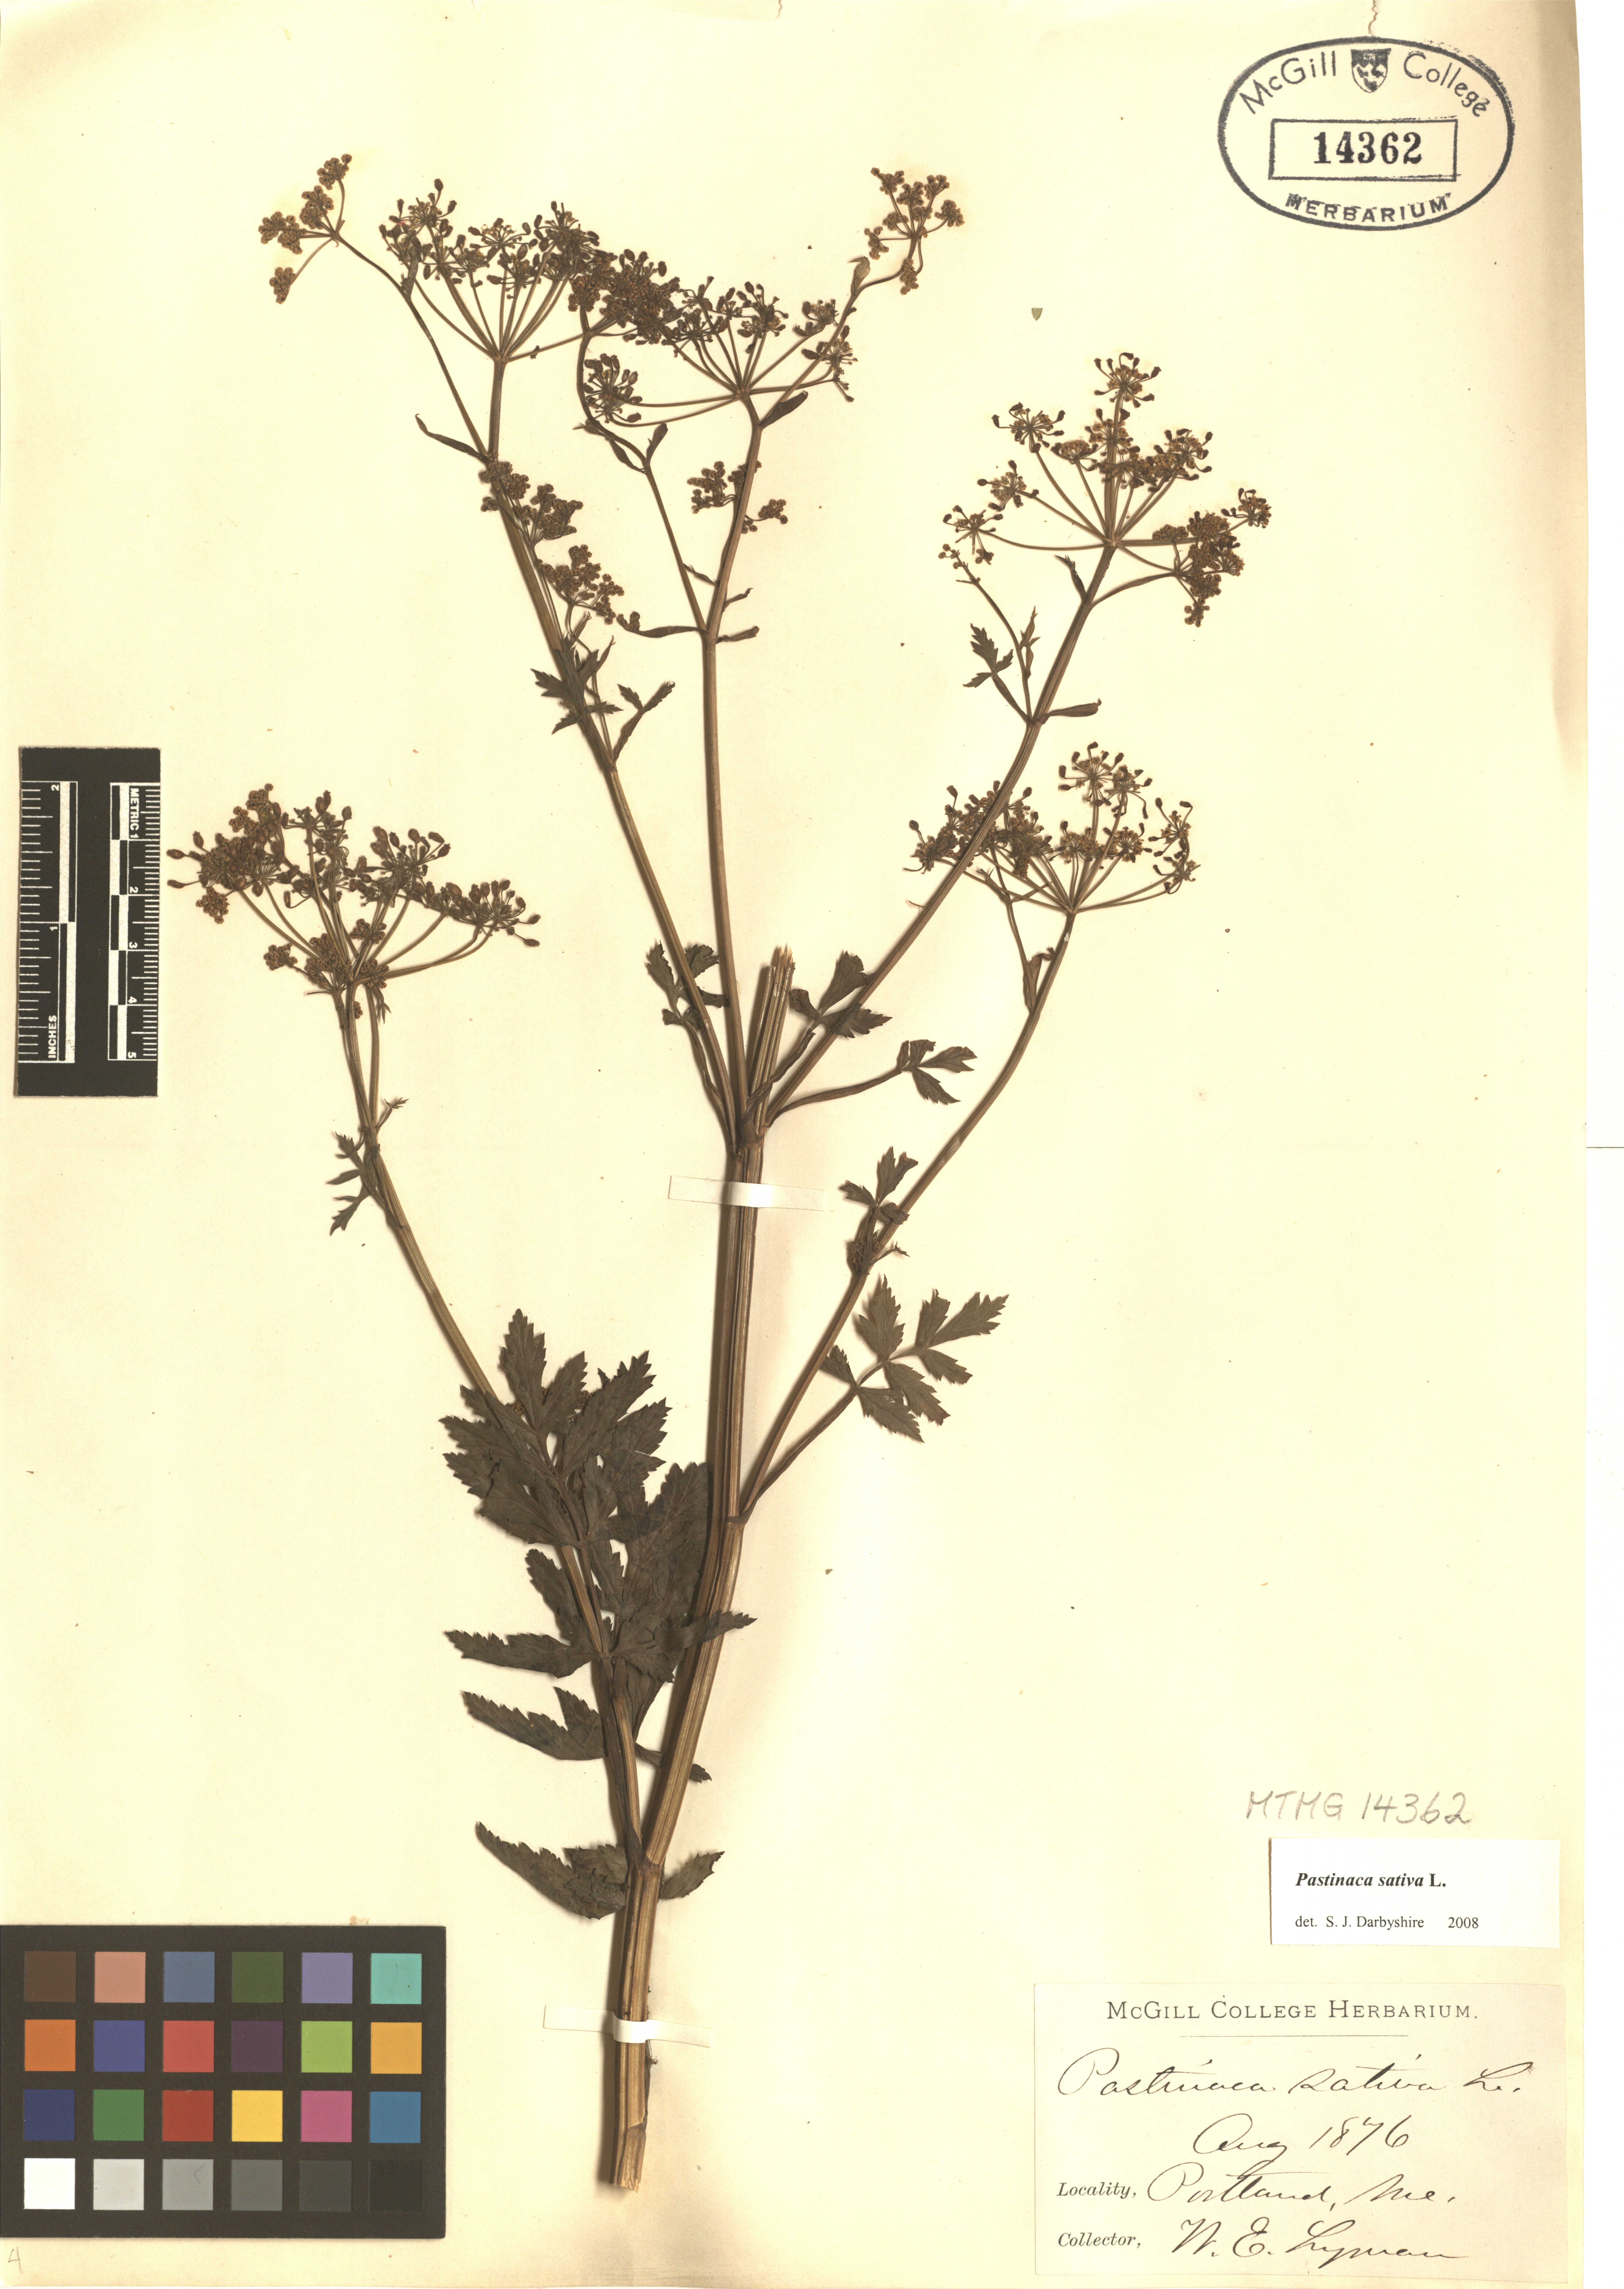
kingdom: Plantae
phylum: Tracheophyta
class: Magnoliopsida
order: Apiales
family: Apiaceae
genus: Pastinaca
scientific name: Pastinaca sativa
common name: Wild parsnip
